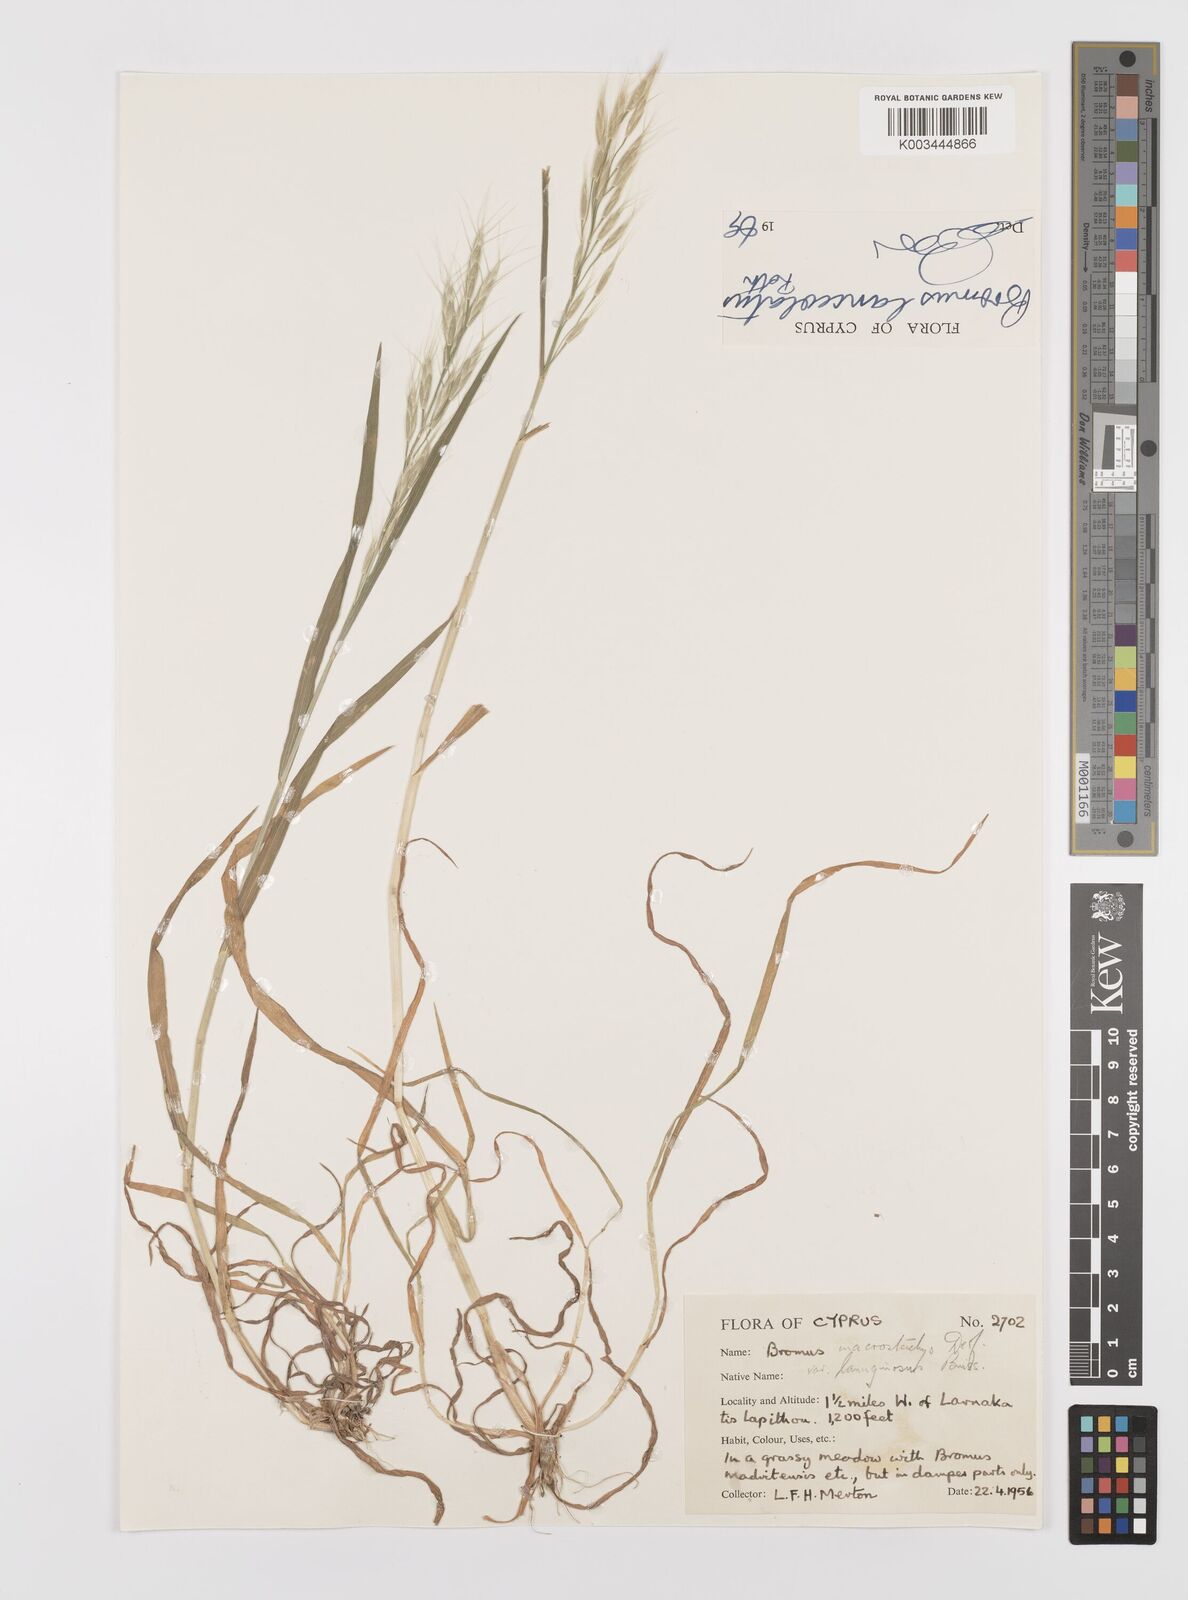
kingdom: Plantae
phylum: Tracheophyta
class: Liliopsida
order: Poales
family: Poaceae
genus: Bromus
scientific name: Bromus lanceolatus
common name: Mediterranean brome
